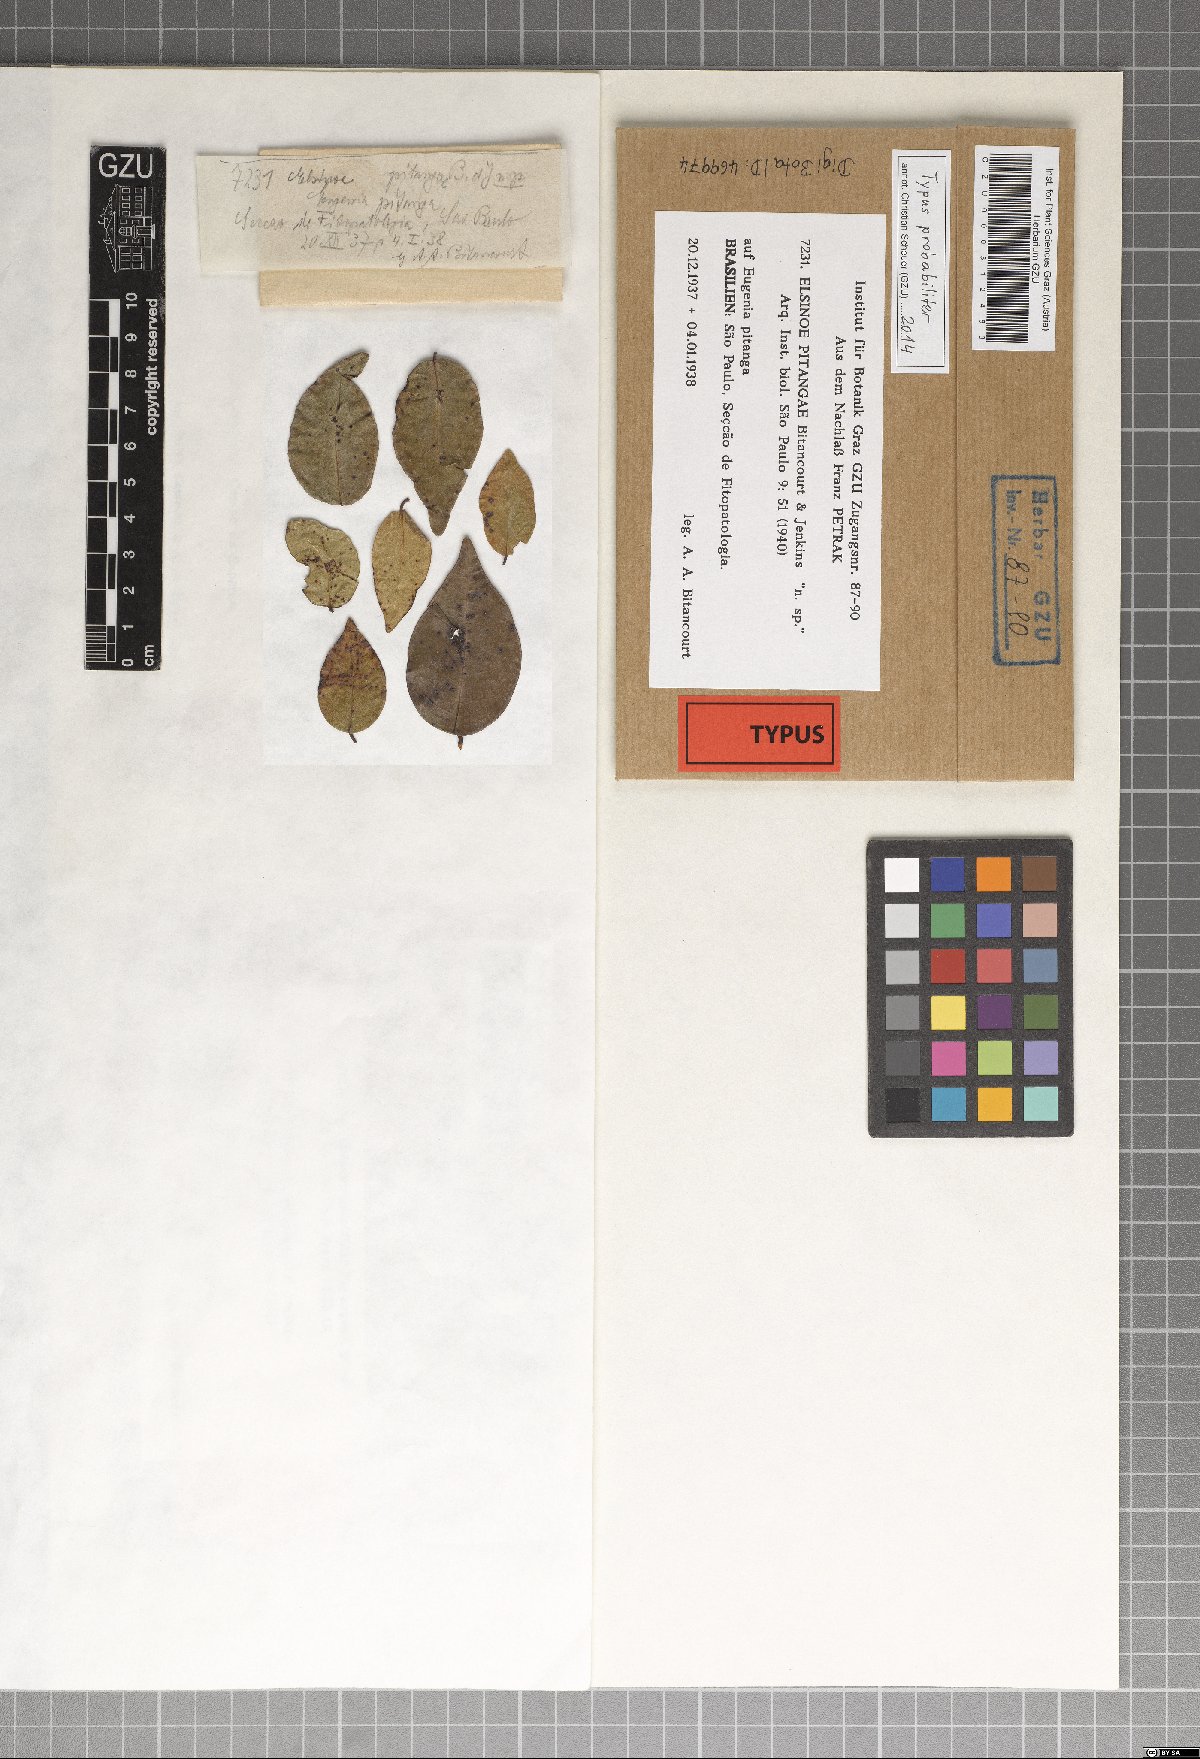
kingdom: Fungi
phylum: Ascomycota
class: Dothideomycetes
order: Myriangiales
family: Elsinoaceae
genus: Elsinoe
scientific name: Elsinoe pitangae
